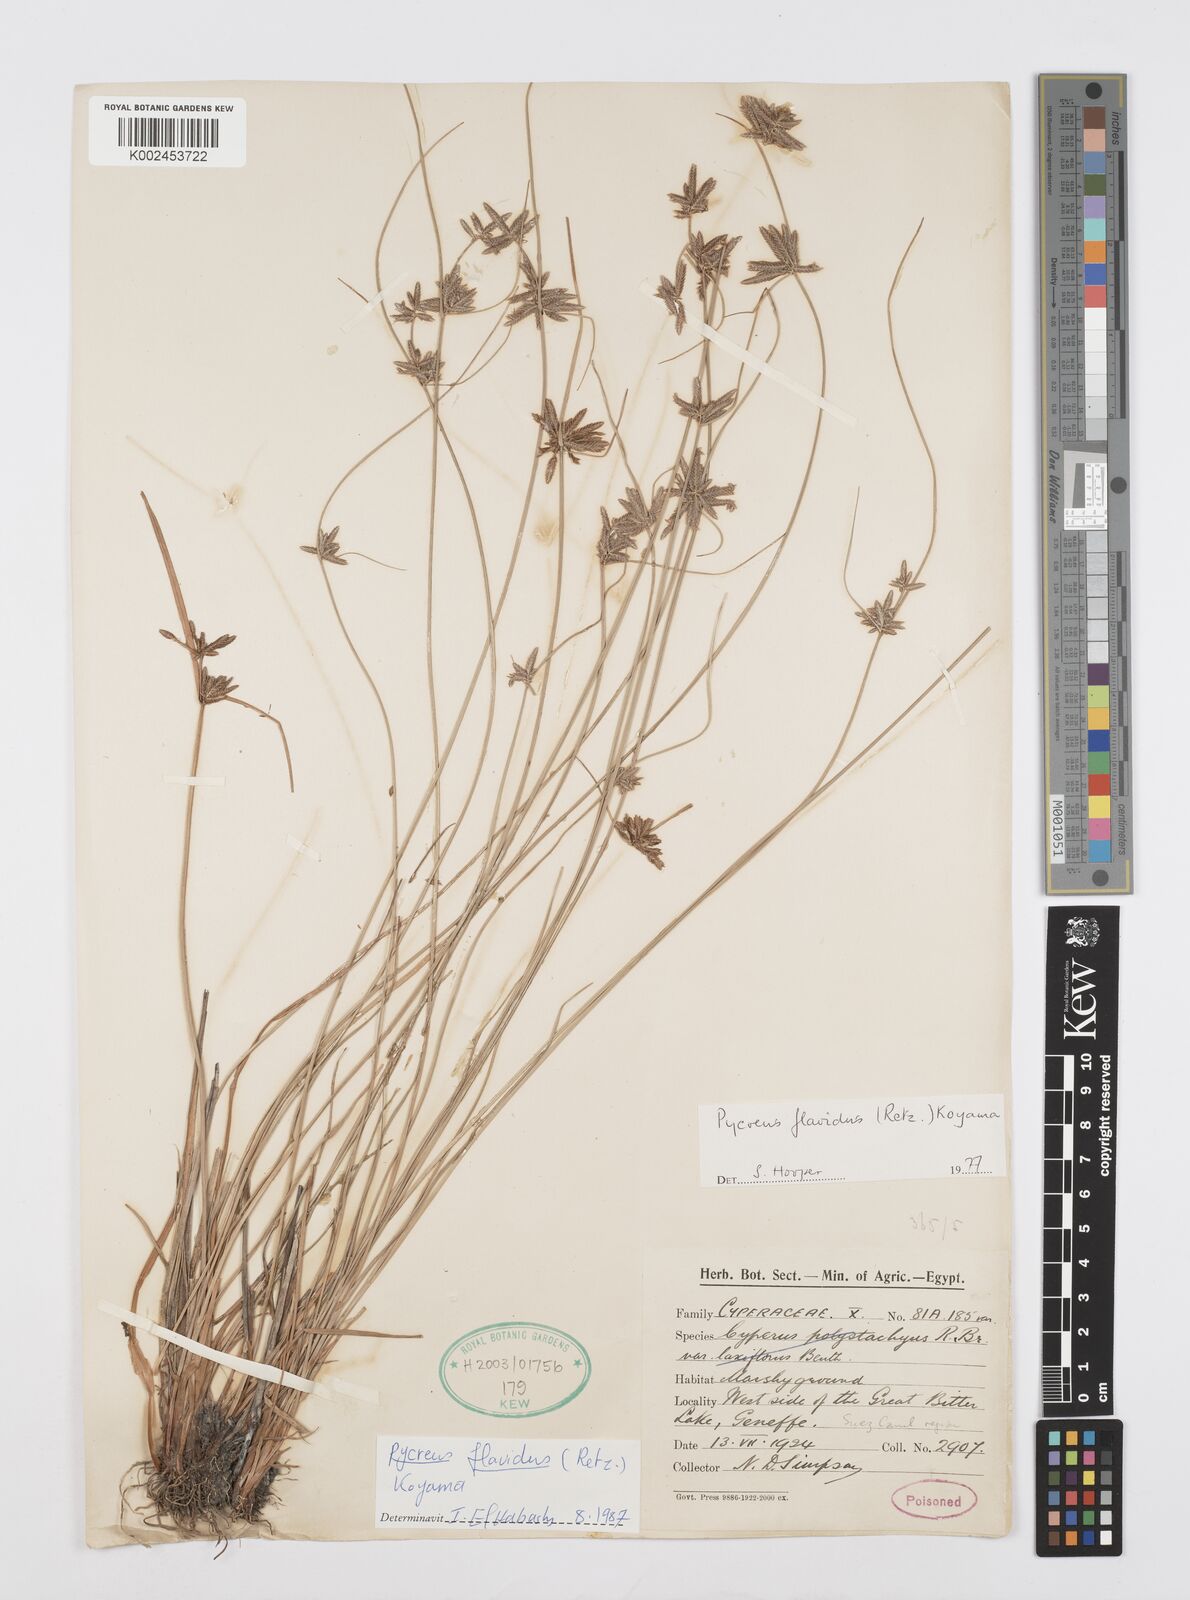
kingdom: Plantae
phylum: Tracheophyta
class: Liliopsida
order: Poales
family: Cyperaceae
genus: Cyperus
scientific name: Cyperus flavidus
